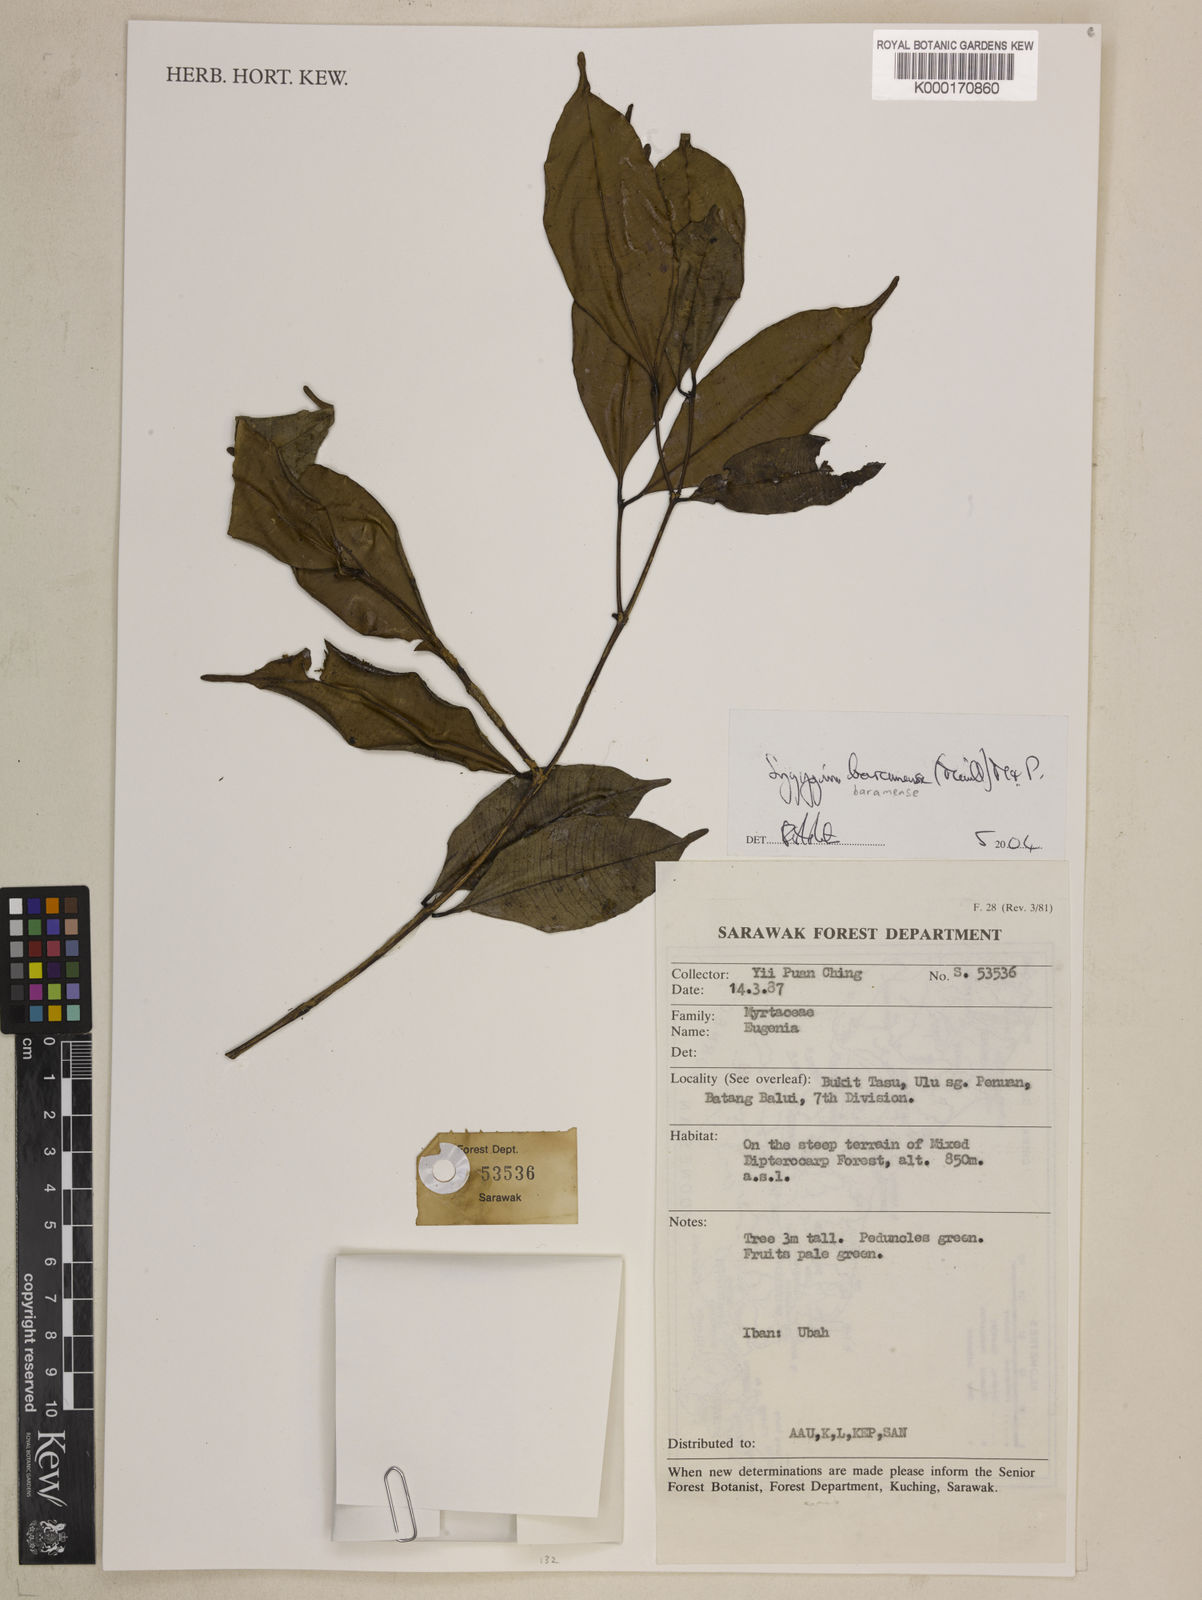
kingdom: Plantae
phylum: Tracheophyta
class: Magnoliopsida
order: Myrtales
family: Myrtaceae
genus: Syzygium
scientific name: Syzygium baramense
